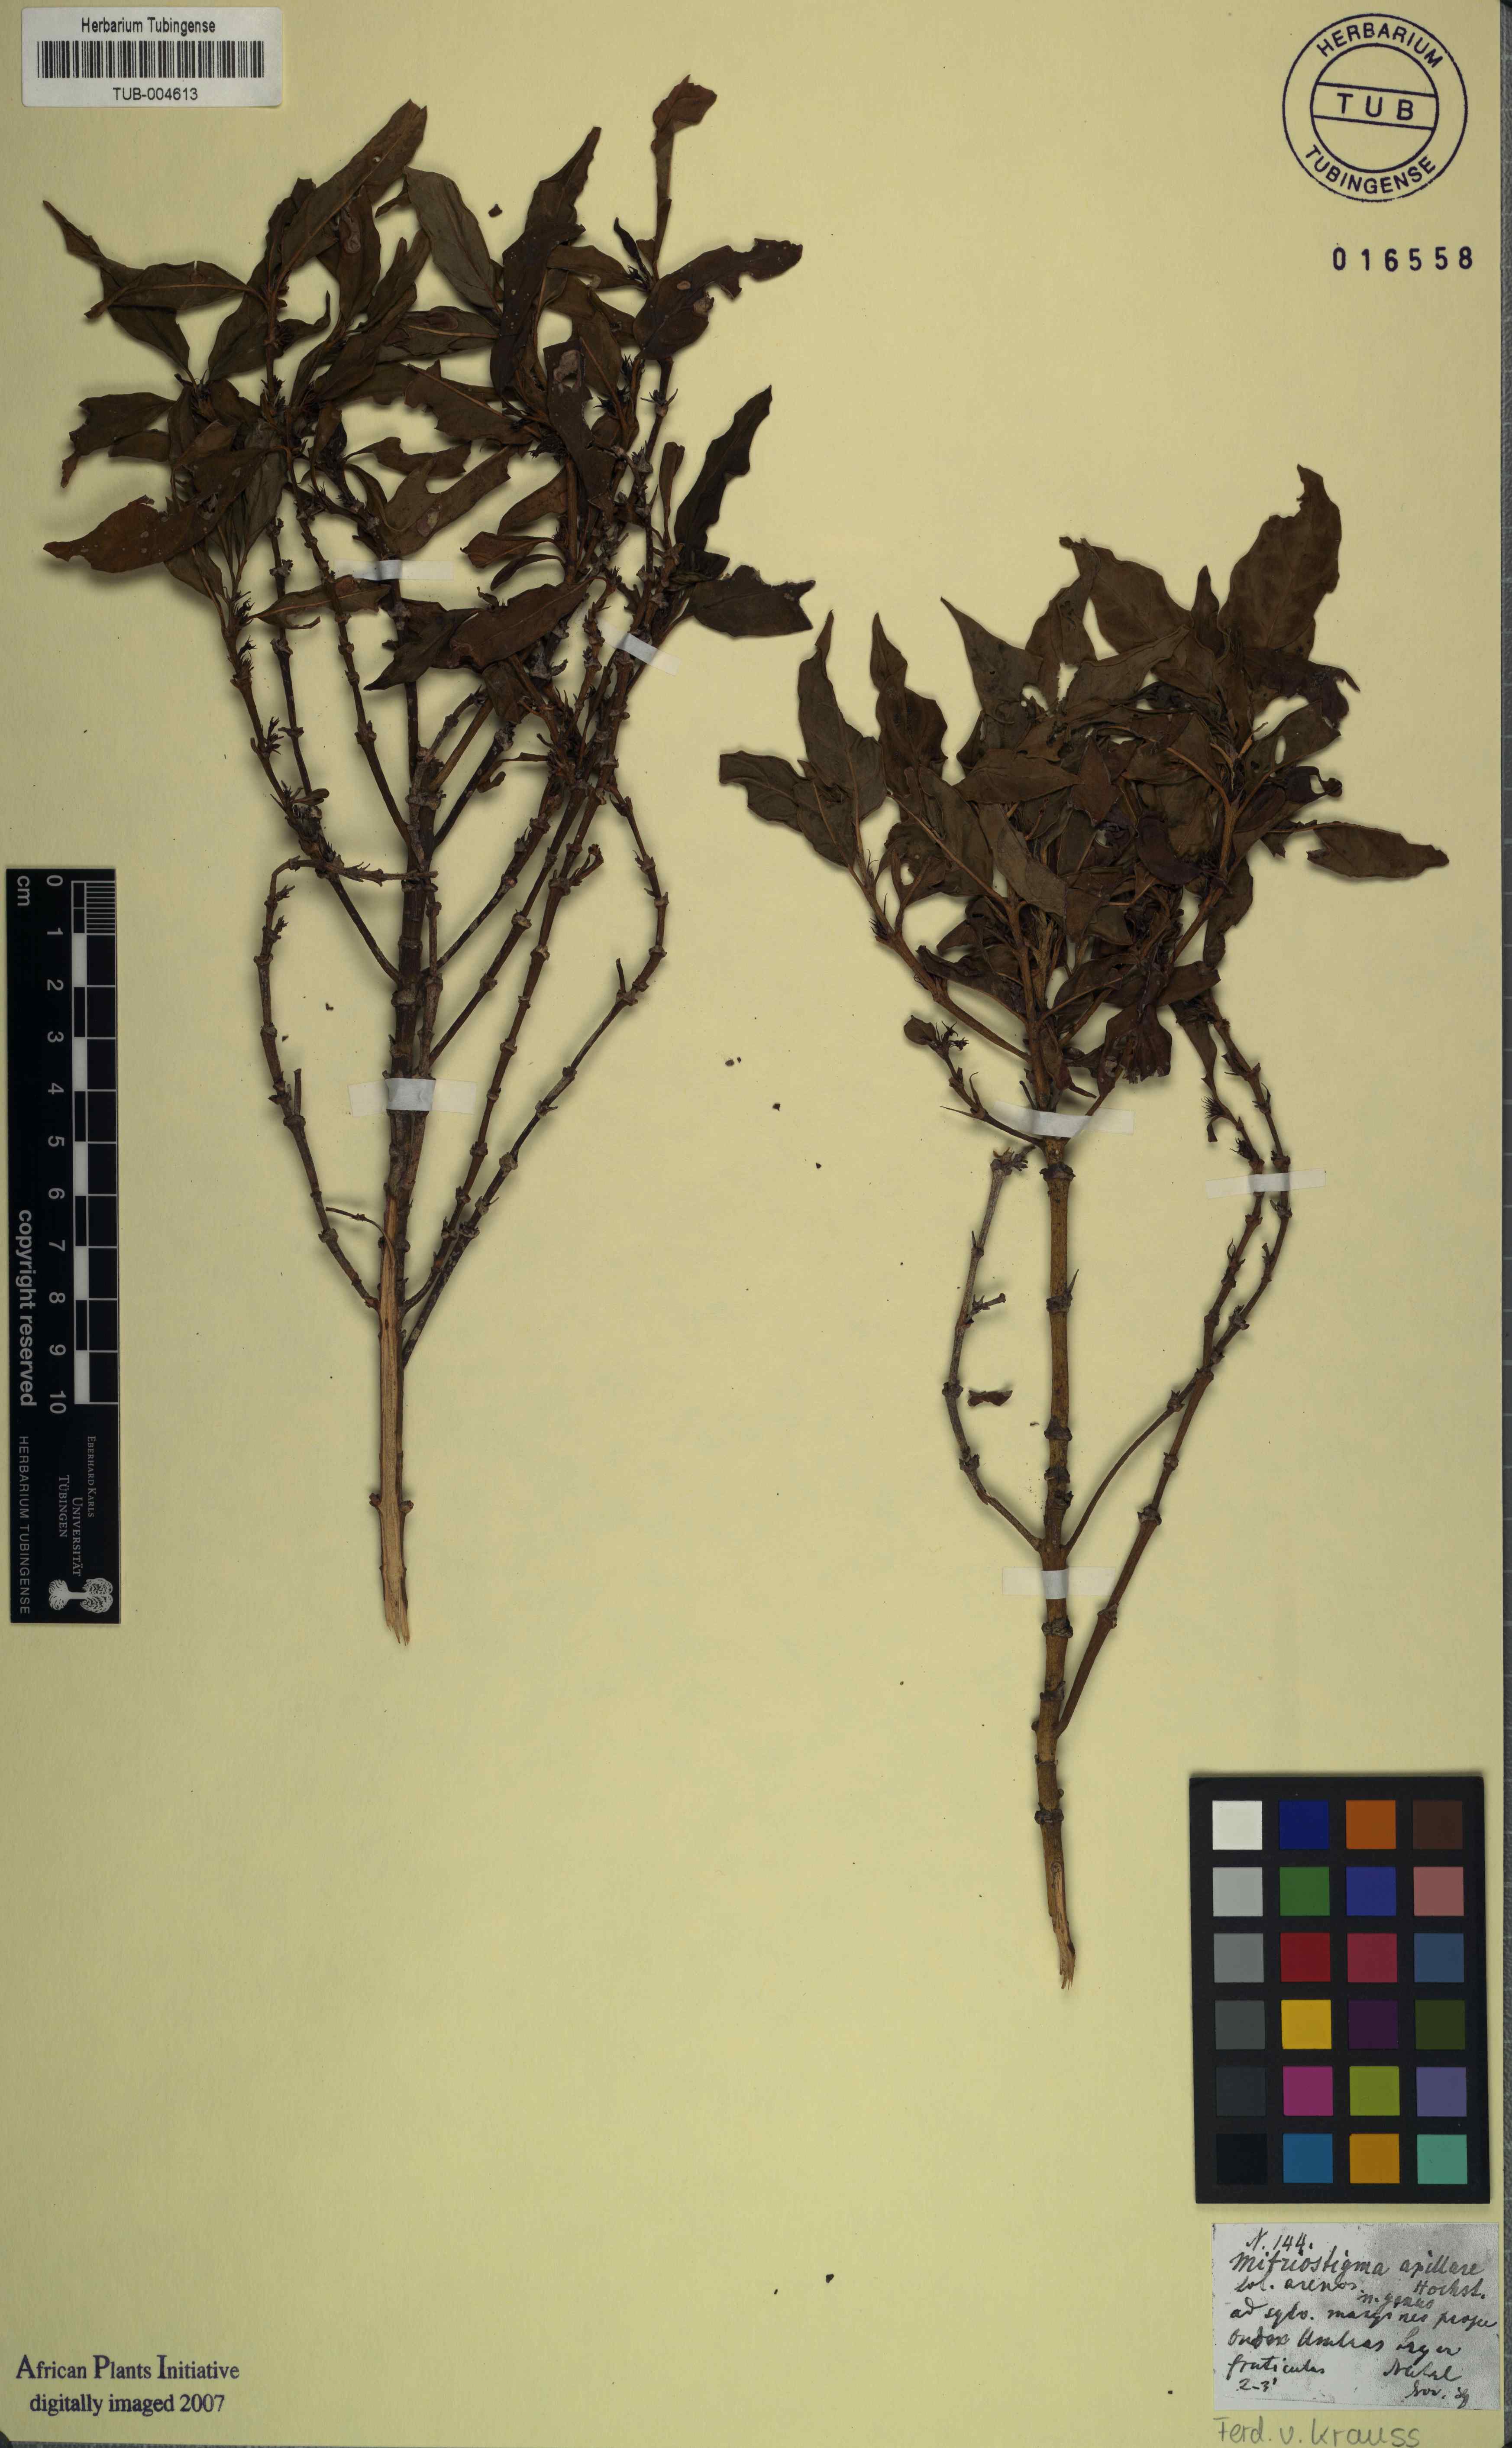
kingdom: Plantae
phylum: Tracheophyta
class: Magnoliopsida
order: Gentianales
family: Rubiaceae
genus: Mitriostigma
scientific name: Mitriostigma axillare
